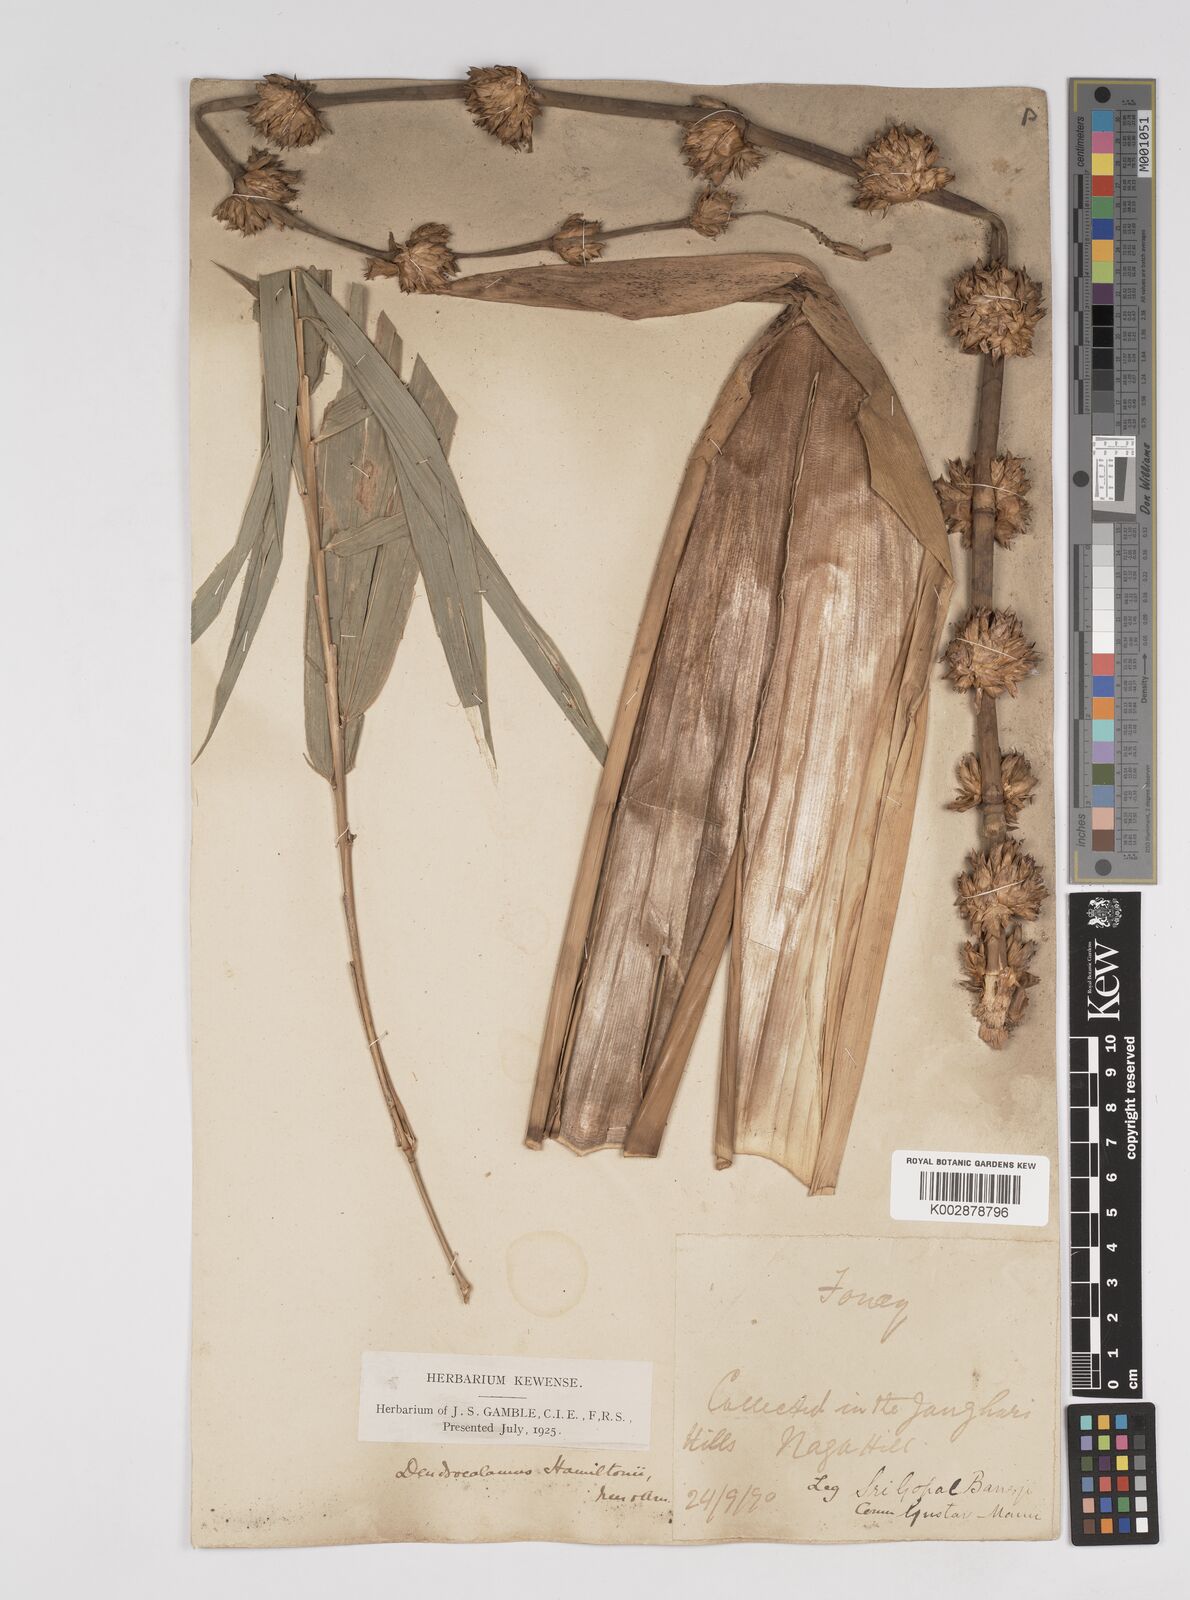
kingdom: Plantae
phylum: Tracheophyta
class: Liliopsida
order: Poales
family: Poaceae
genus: Dendrocalamus
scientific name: Dendrocalamus hamiltonii
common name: Tama bamboo
